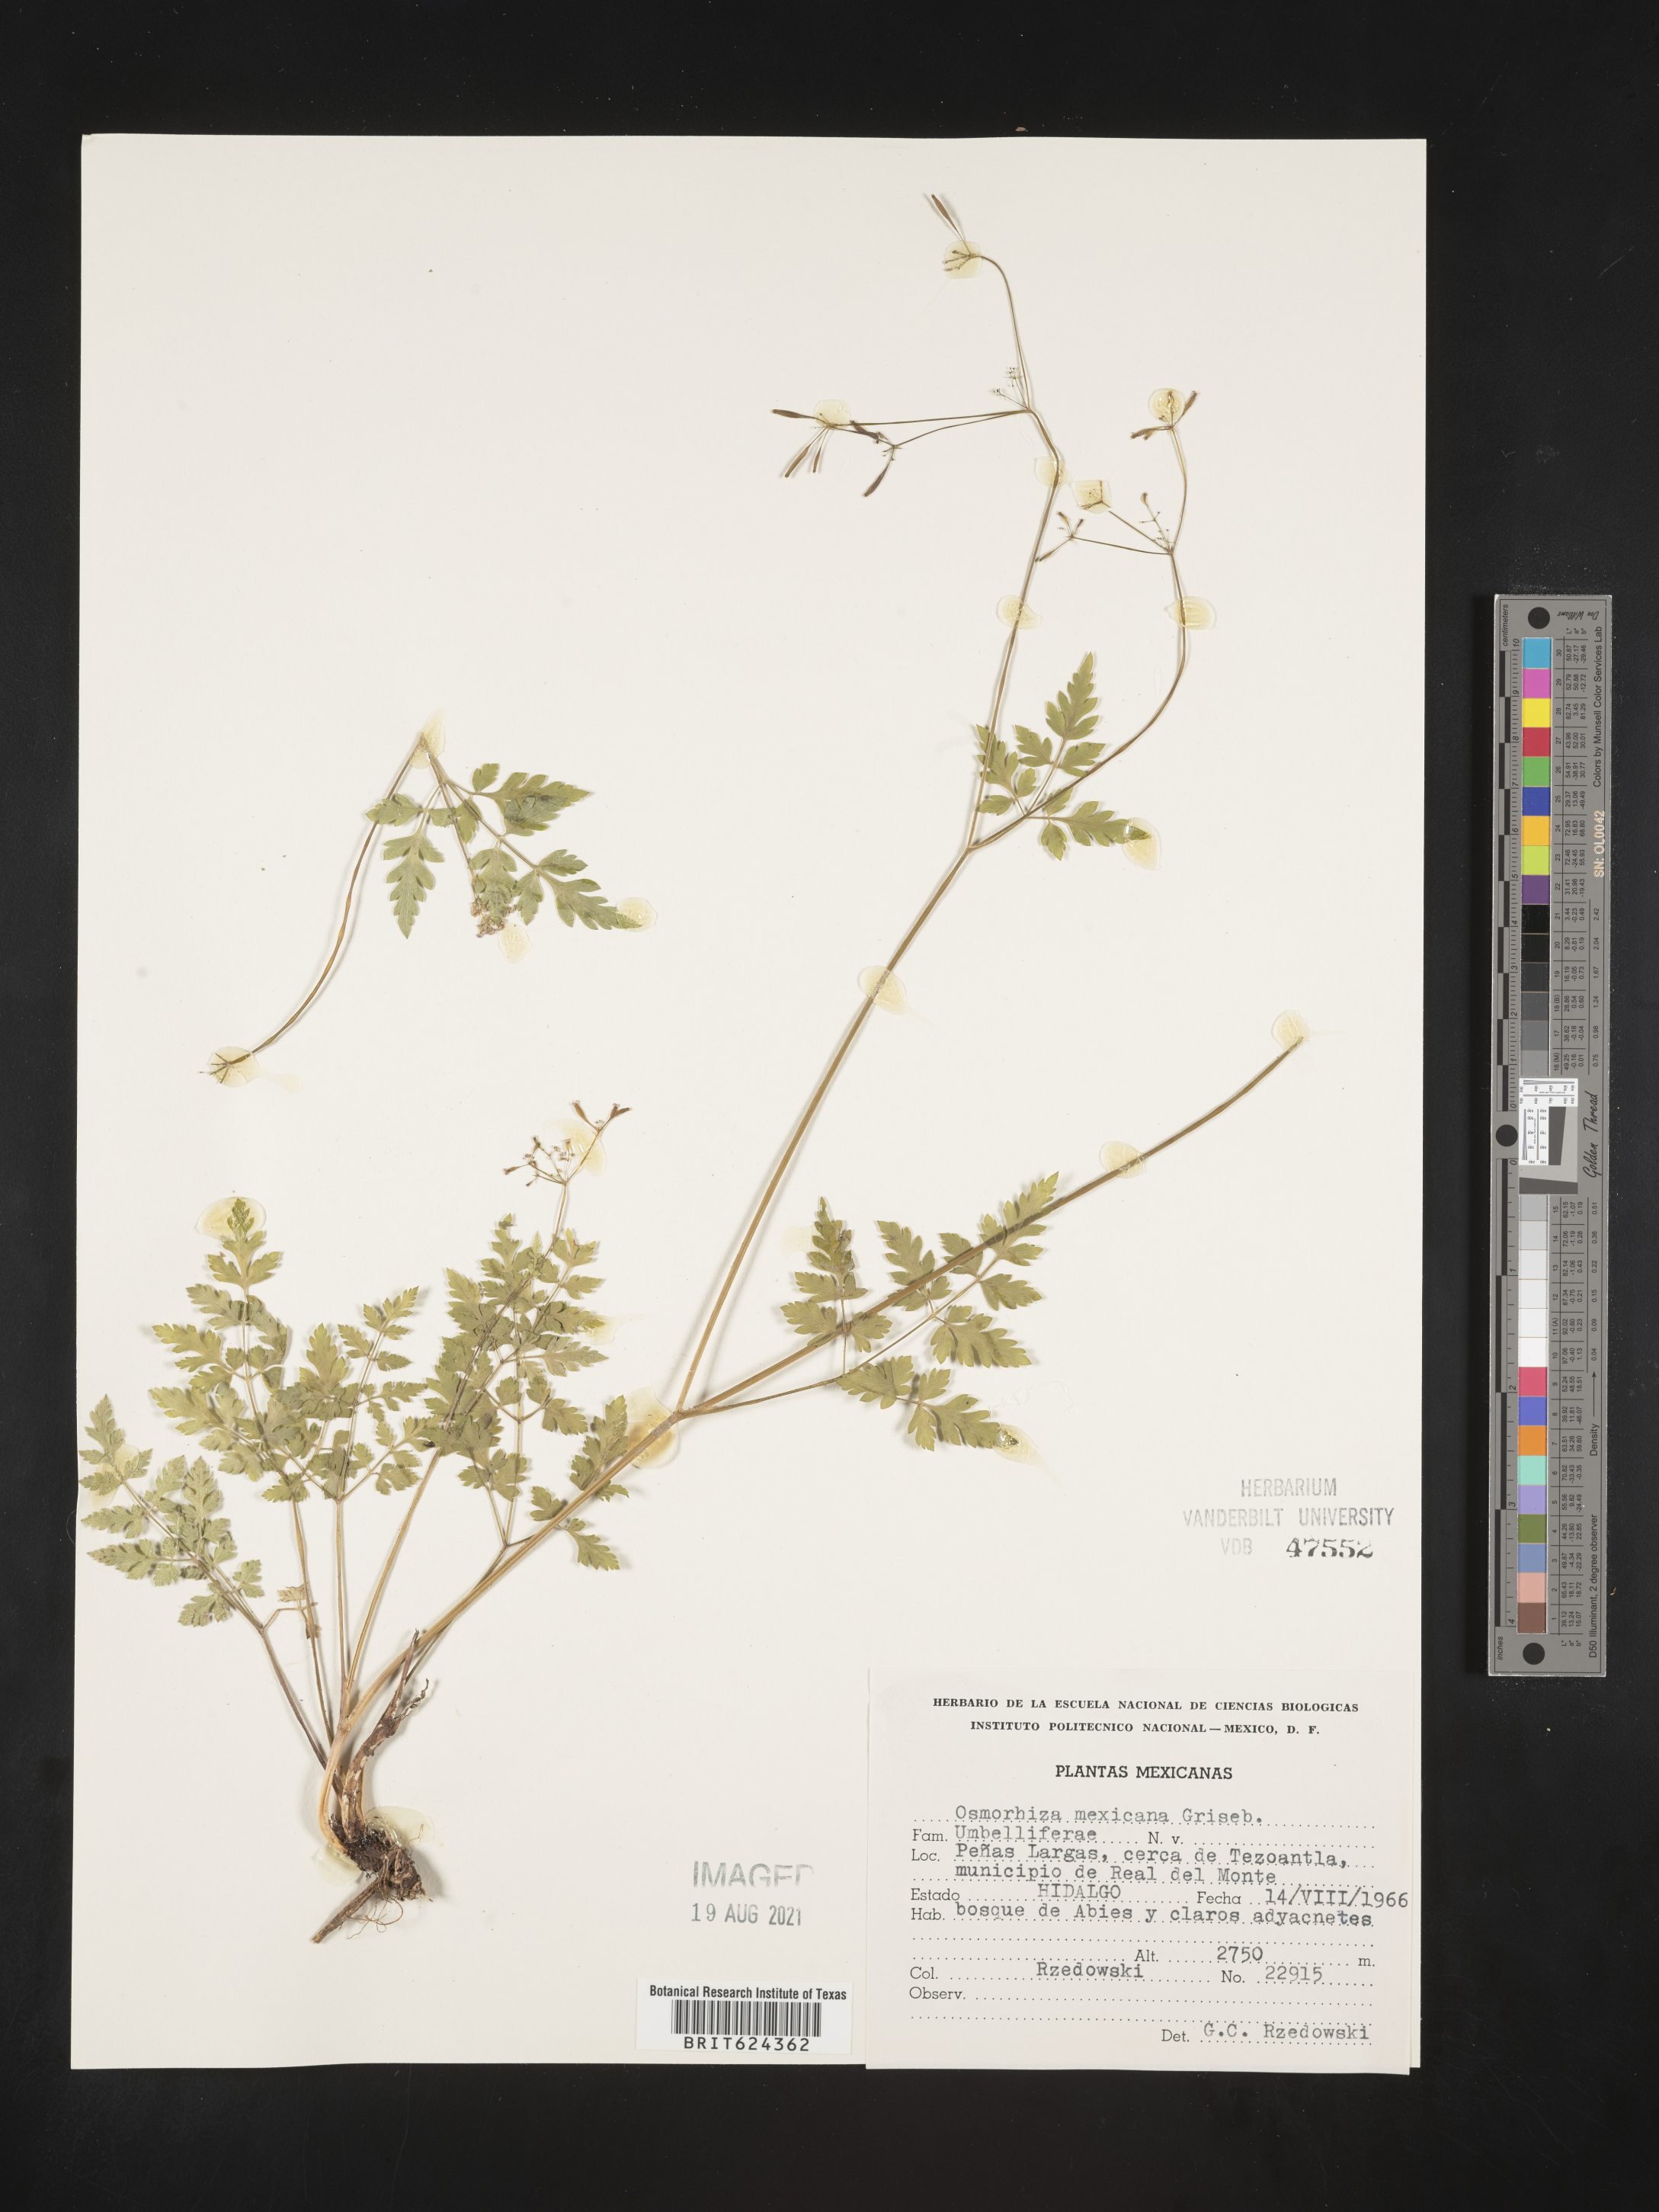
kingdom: Plantae
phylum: Tracheophyta
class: Magnoliopsida
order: Apiales
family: Apiaceae
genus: Osmorhiza
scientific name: Osmorhiza
